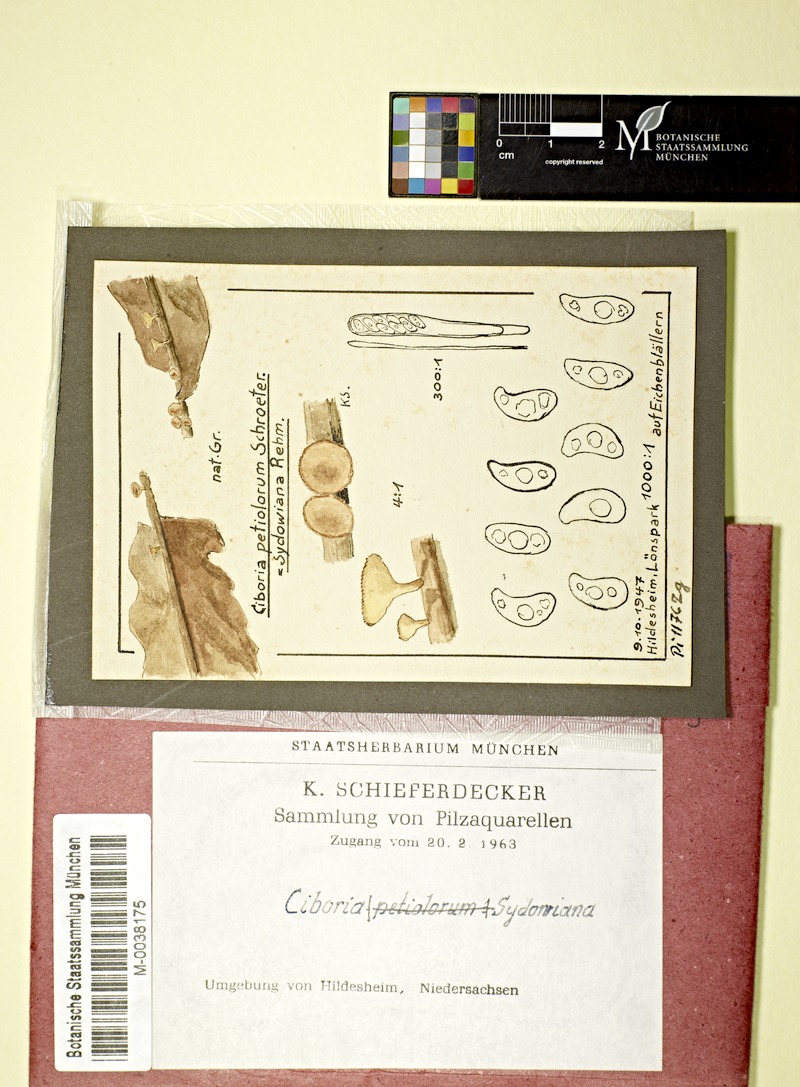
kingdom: Fungi
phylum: Ascomycota
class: Leotiomycetes
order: Helotiales
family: Rutstroemiaceae
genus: Rutstroemia
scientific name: Rutstroemia sydowiana
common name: Oakleaf cup
